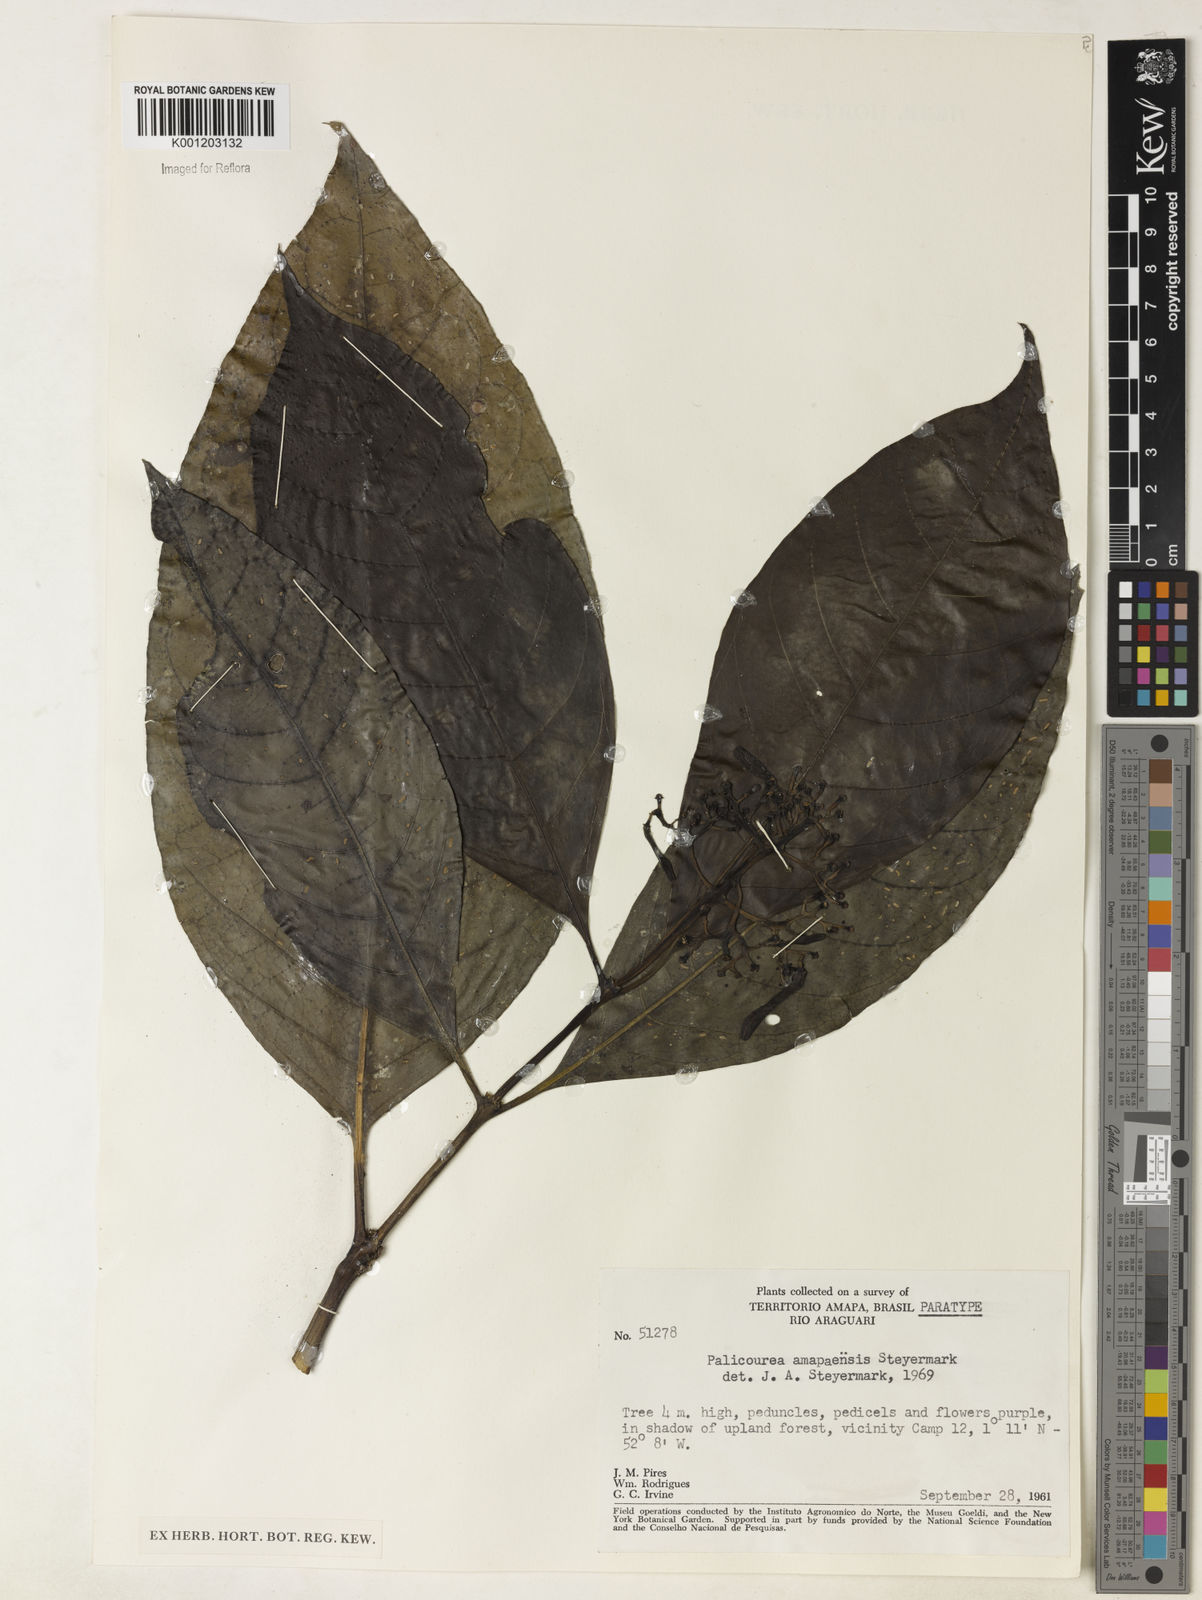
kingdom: Plantae
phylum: Tracheophyta
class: Magnoliopsida
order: Gentianales
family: Rubiaceae
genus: Palicourea
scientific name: Palicourea amapaensis
